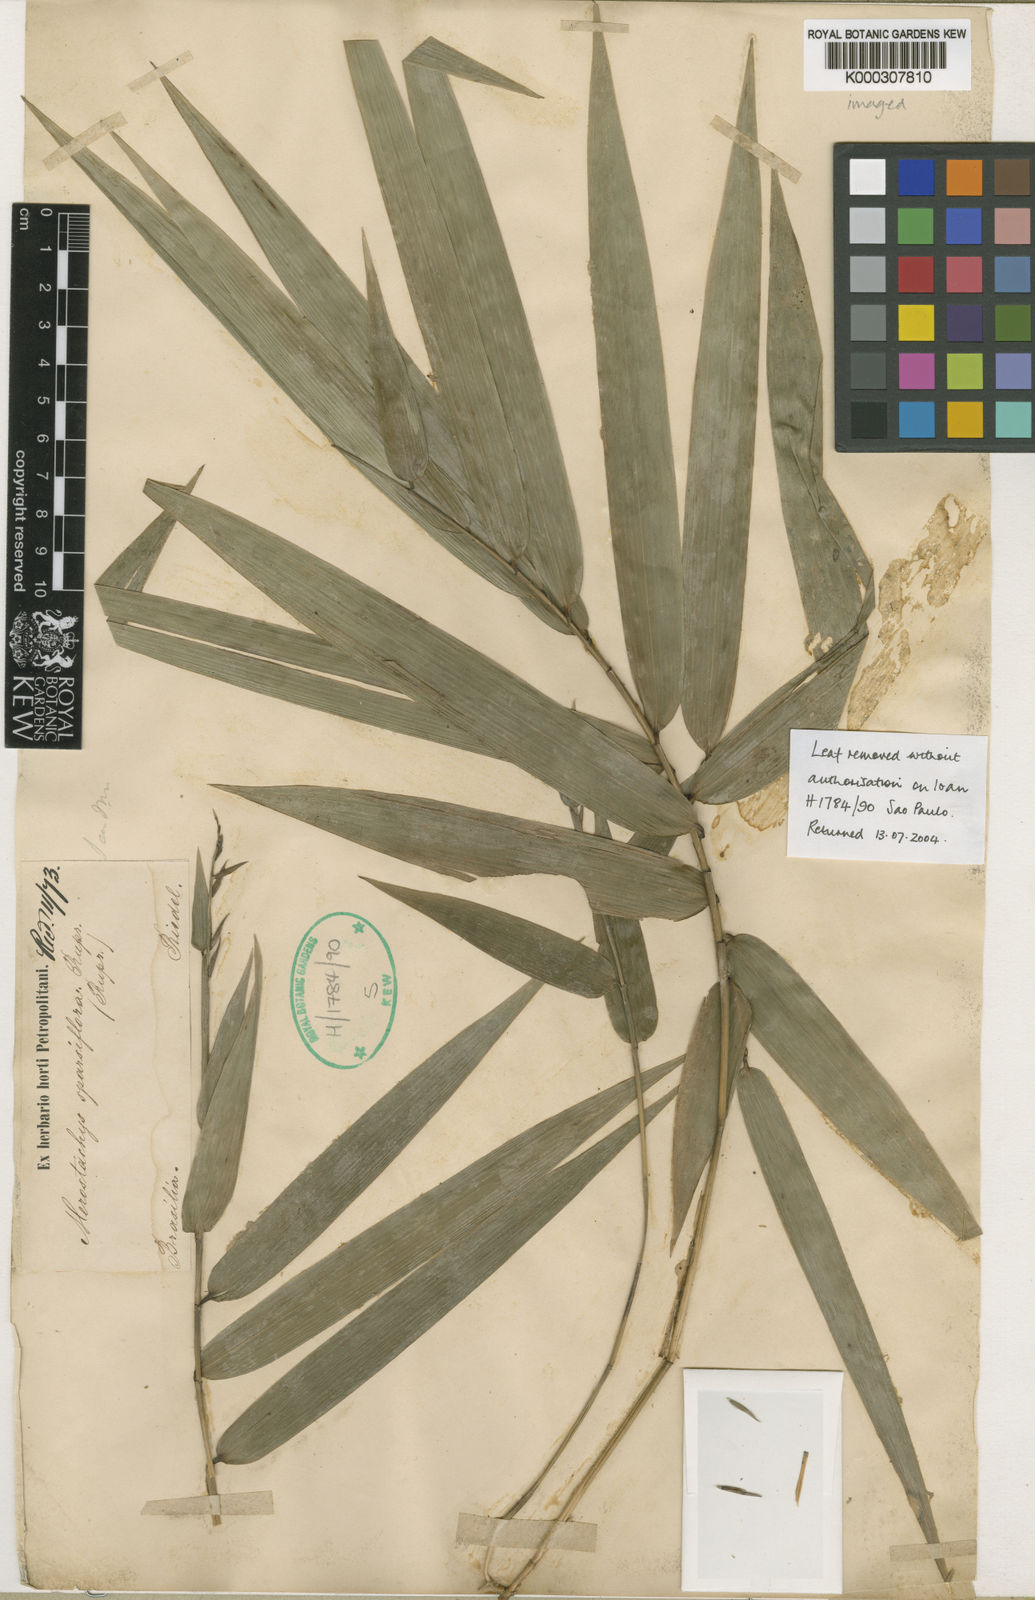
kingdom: Plantae
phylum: Tracheophyta
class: Liliopsida
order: Poales
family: Poaceae
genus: Merostachys
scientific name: Merostachys sparsiflora
